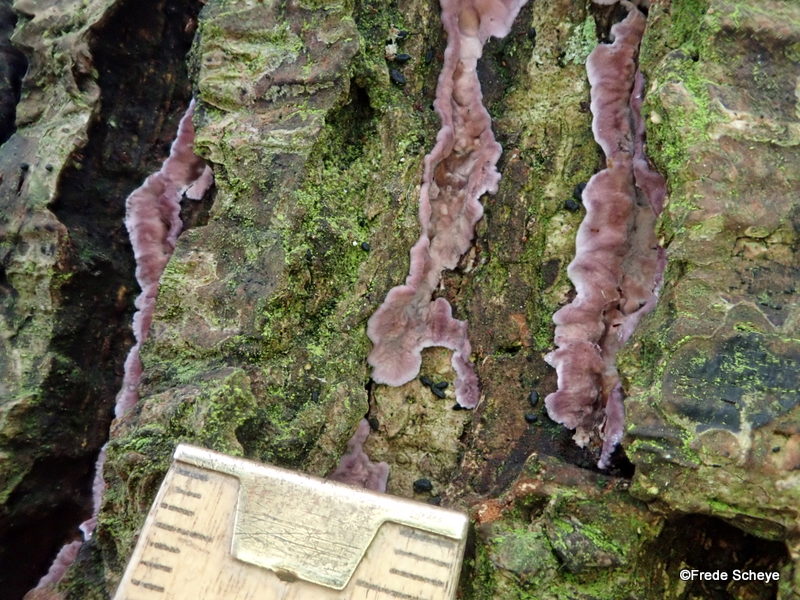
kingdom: Fungi
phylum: Basidiomycota
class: Agaricomycetes
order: Agaricales
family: Cyphellaceae
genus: Chondrostereum
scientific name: Chondrostereum purpureum
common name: purpurlædersvamp
